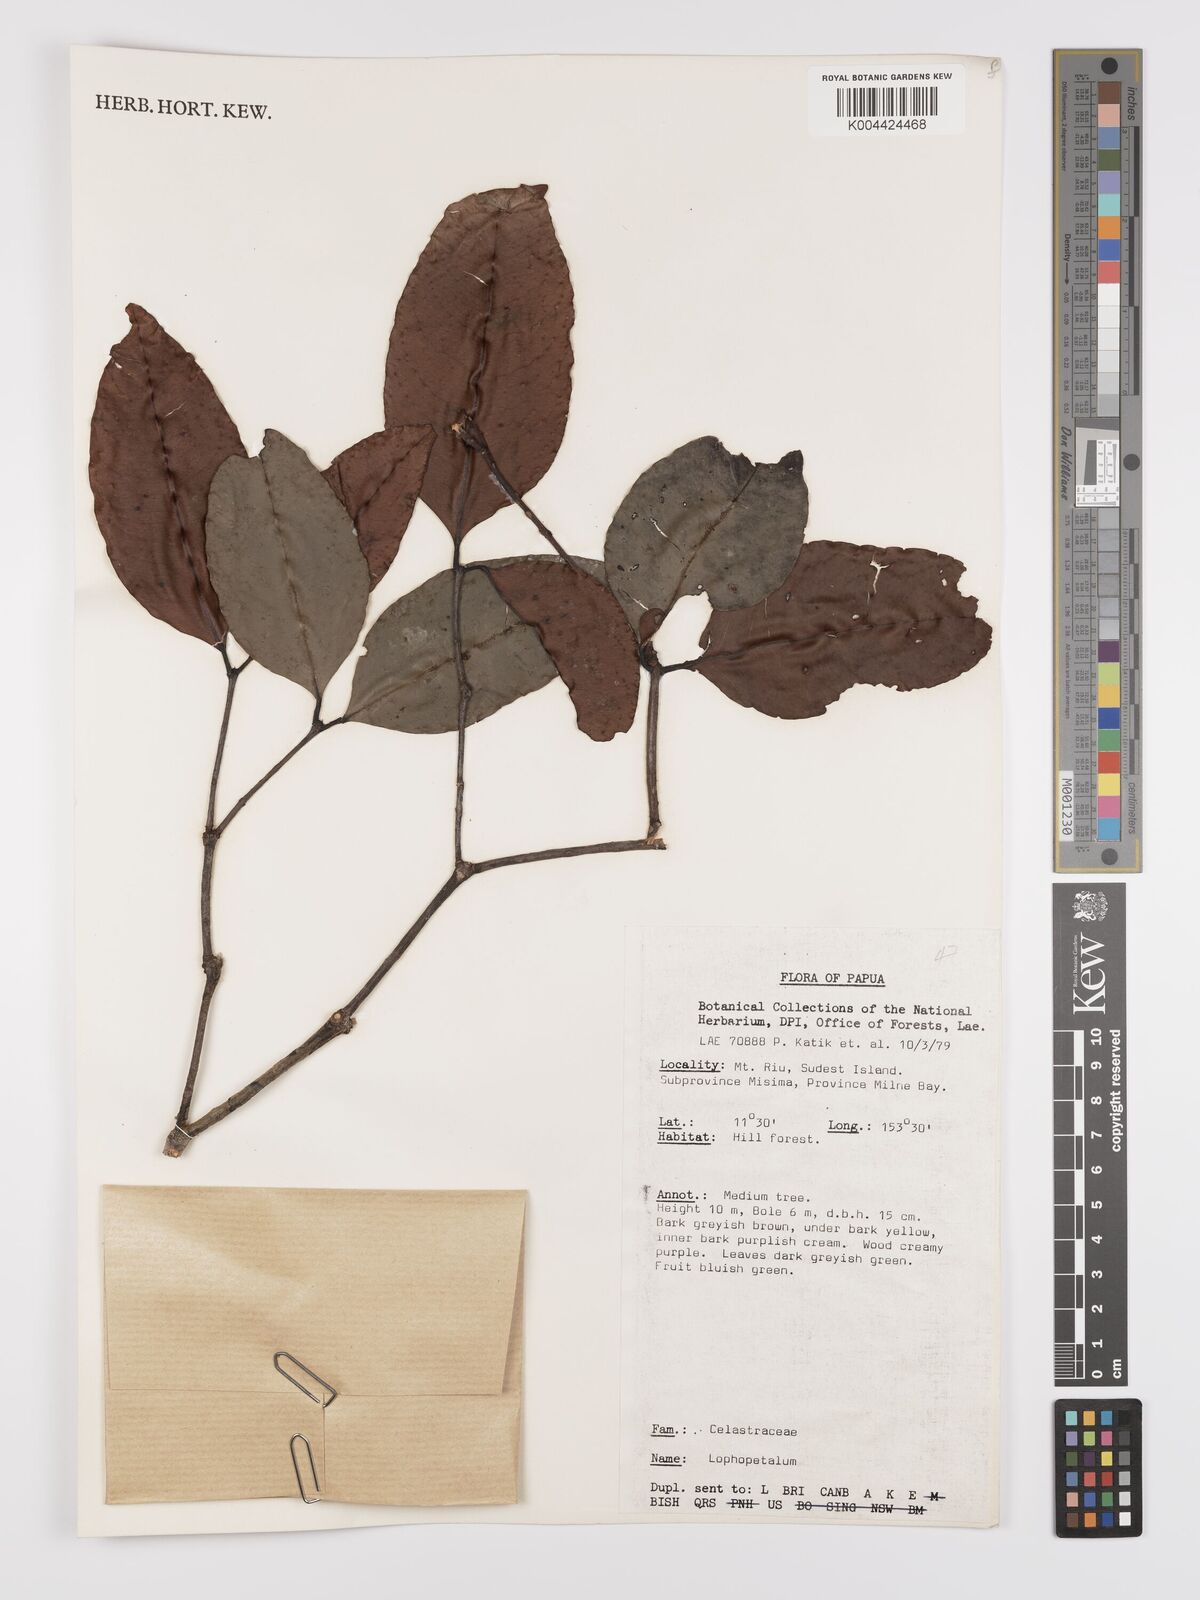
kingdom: Plantae
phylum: Tracheophyta
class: Magnoliopsida
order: Celastrales
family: Celastraceae
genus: Lophopetalum
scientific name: Lophopetalum
